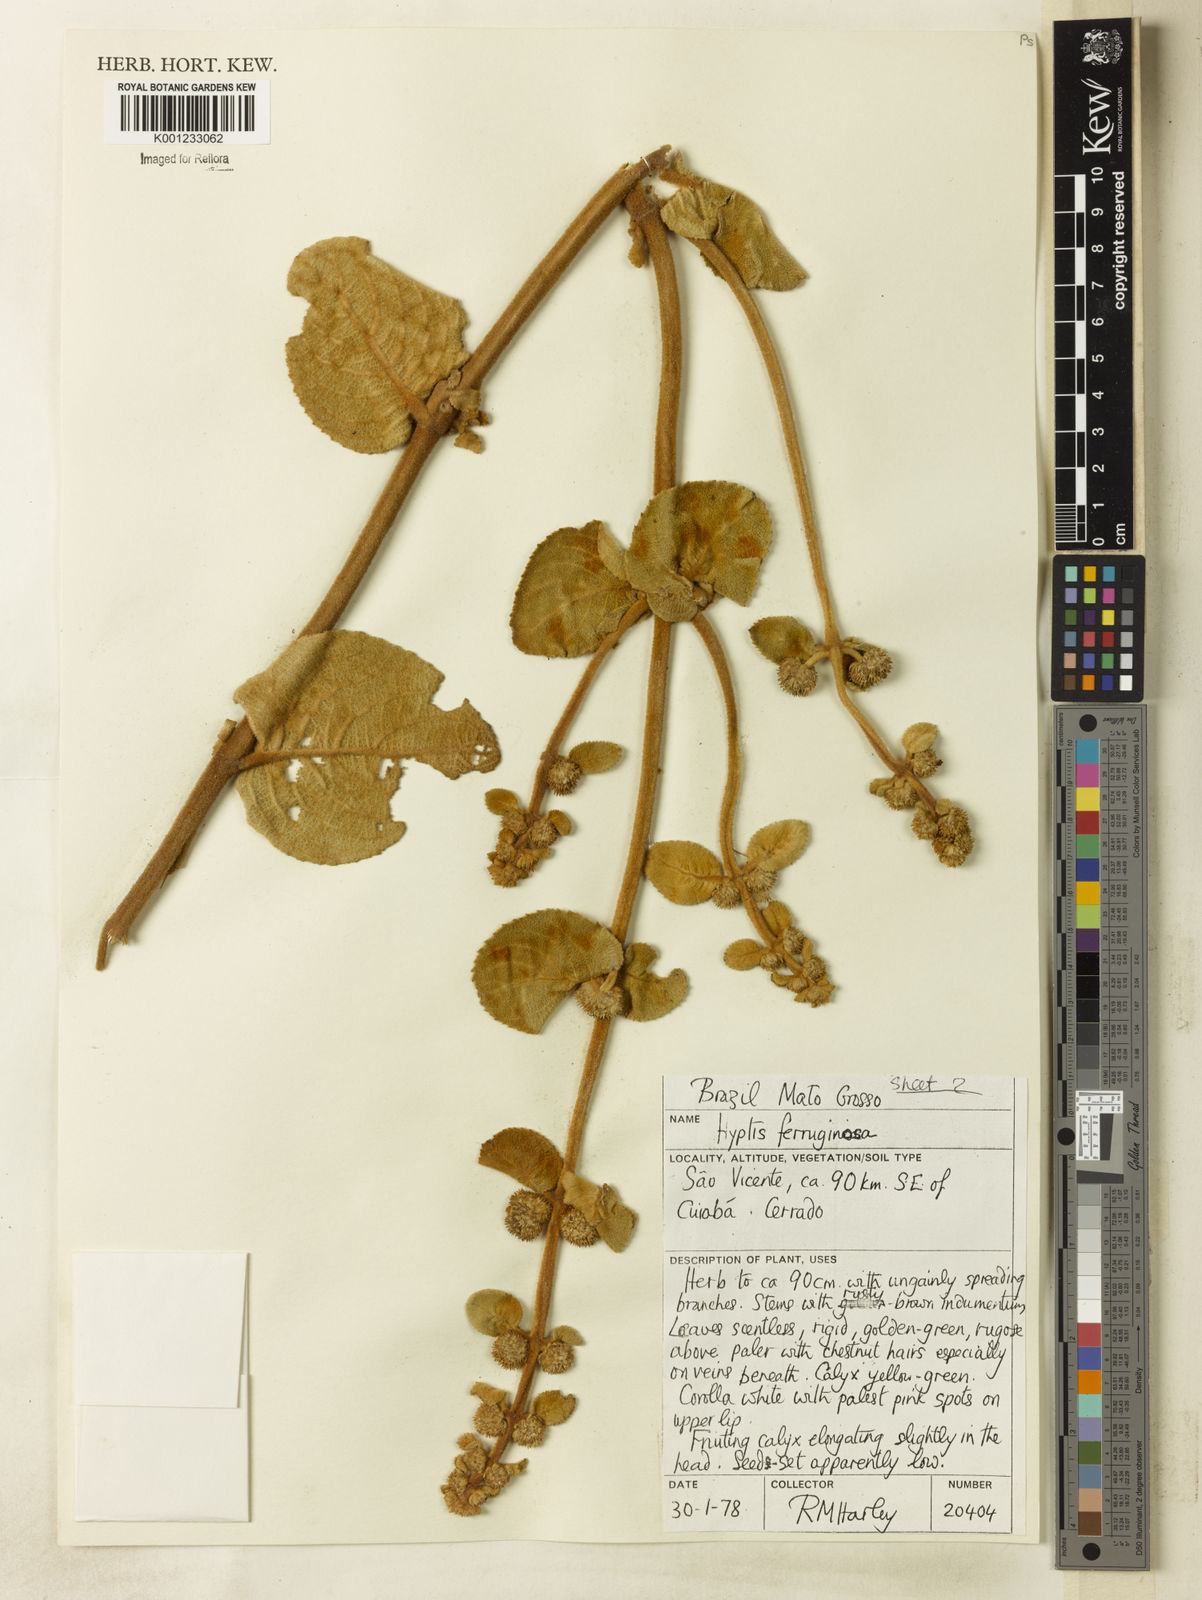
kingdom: Plantae
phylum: Tracheophyta
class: Magnoliopsida
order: Lamiales
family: Lamiaceae
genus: Hyptis
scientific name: Hyptis ferruginosa
